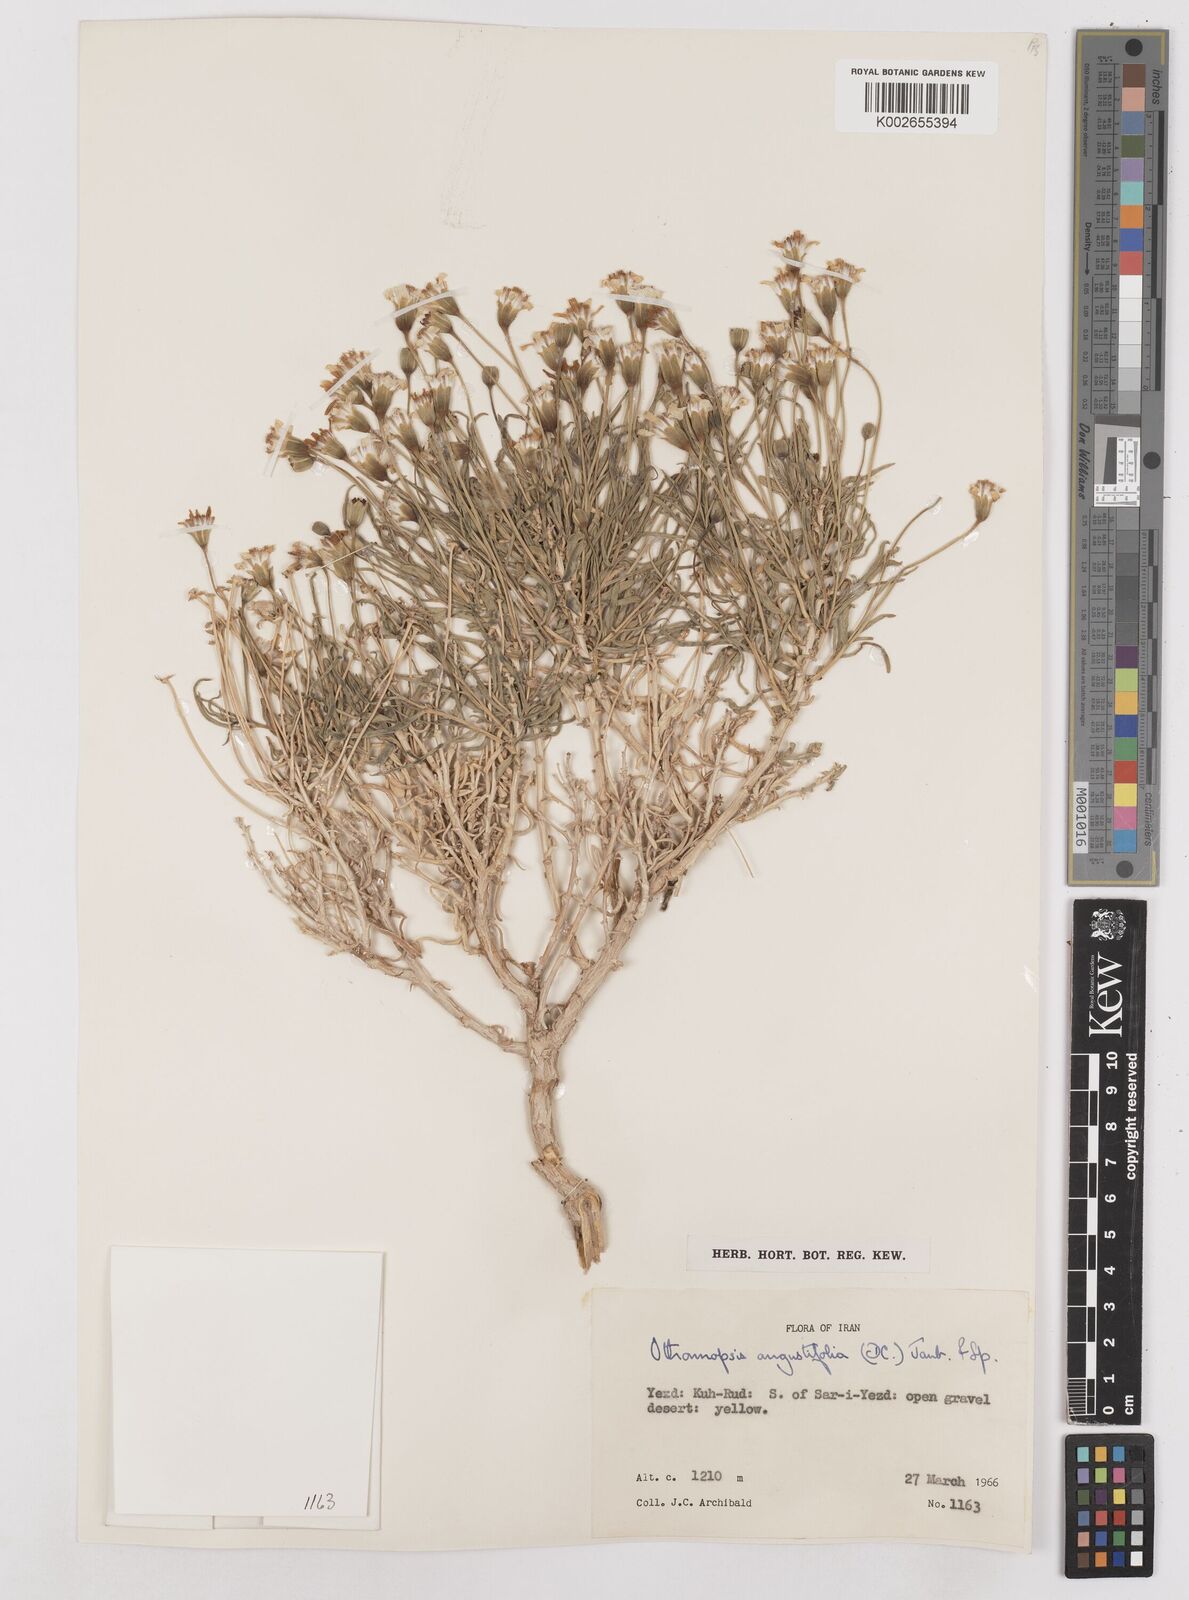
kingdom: Plantae
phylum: Tracheophyta
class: Magnoliopsida
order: Asterales
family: Asteraceae
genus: Hertia
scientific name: Hertia angustifolia
